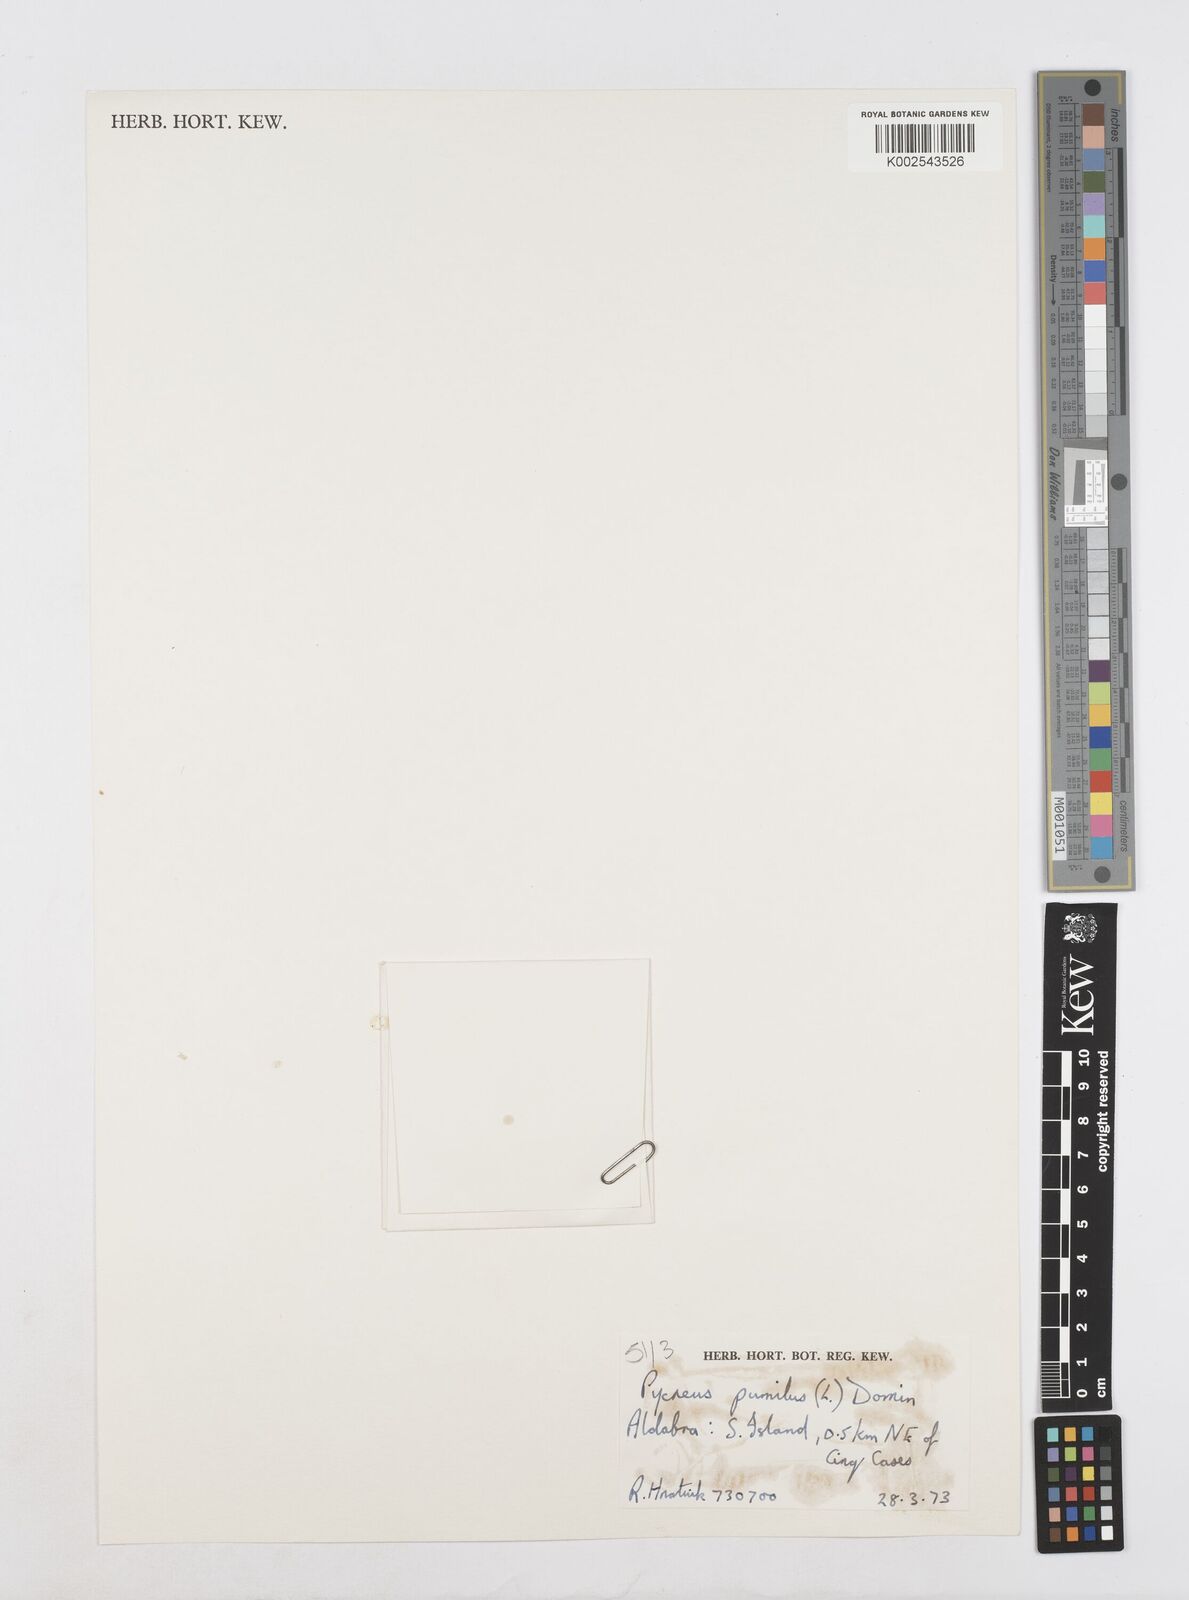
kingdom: Plantae
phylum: Tracheophyta
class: Liliopsida
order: Poales
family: Cyperaceae
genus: Cyperus
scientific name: Cyperus pumilus
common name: Low flatsedge
